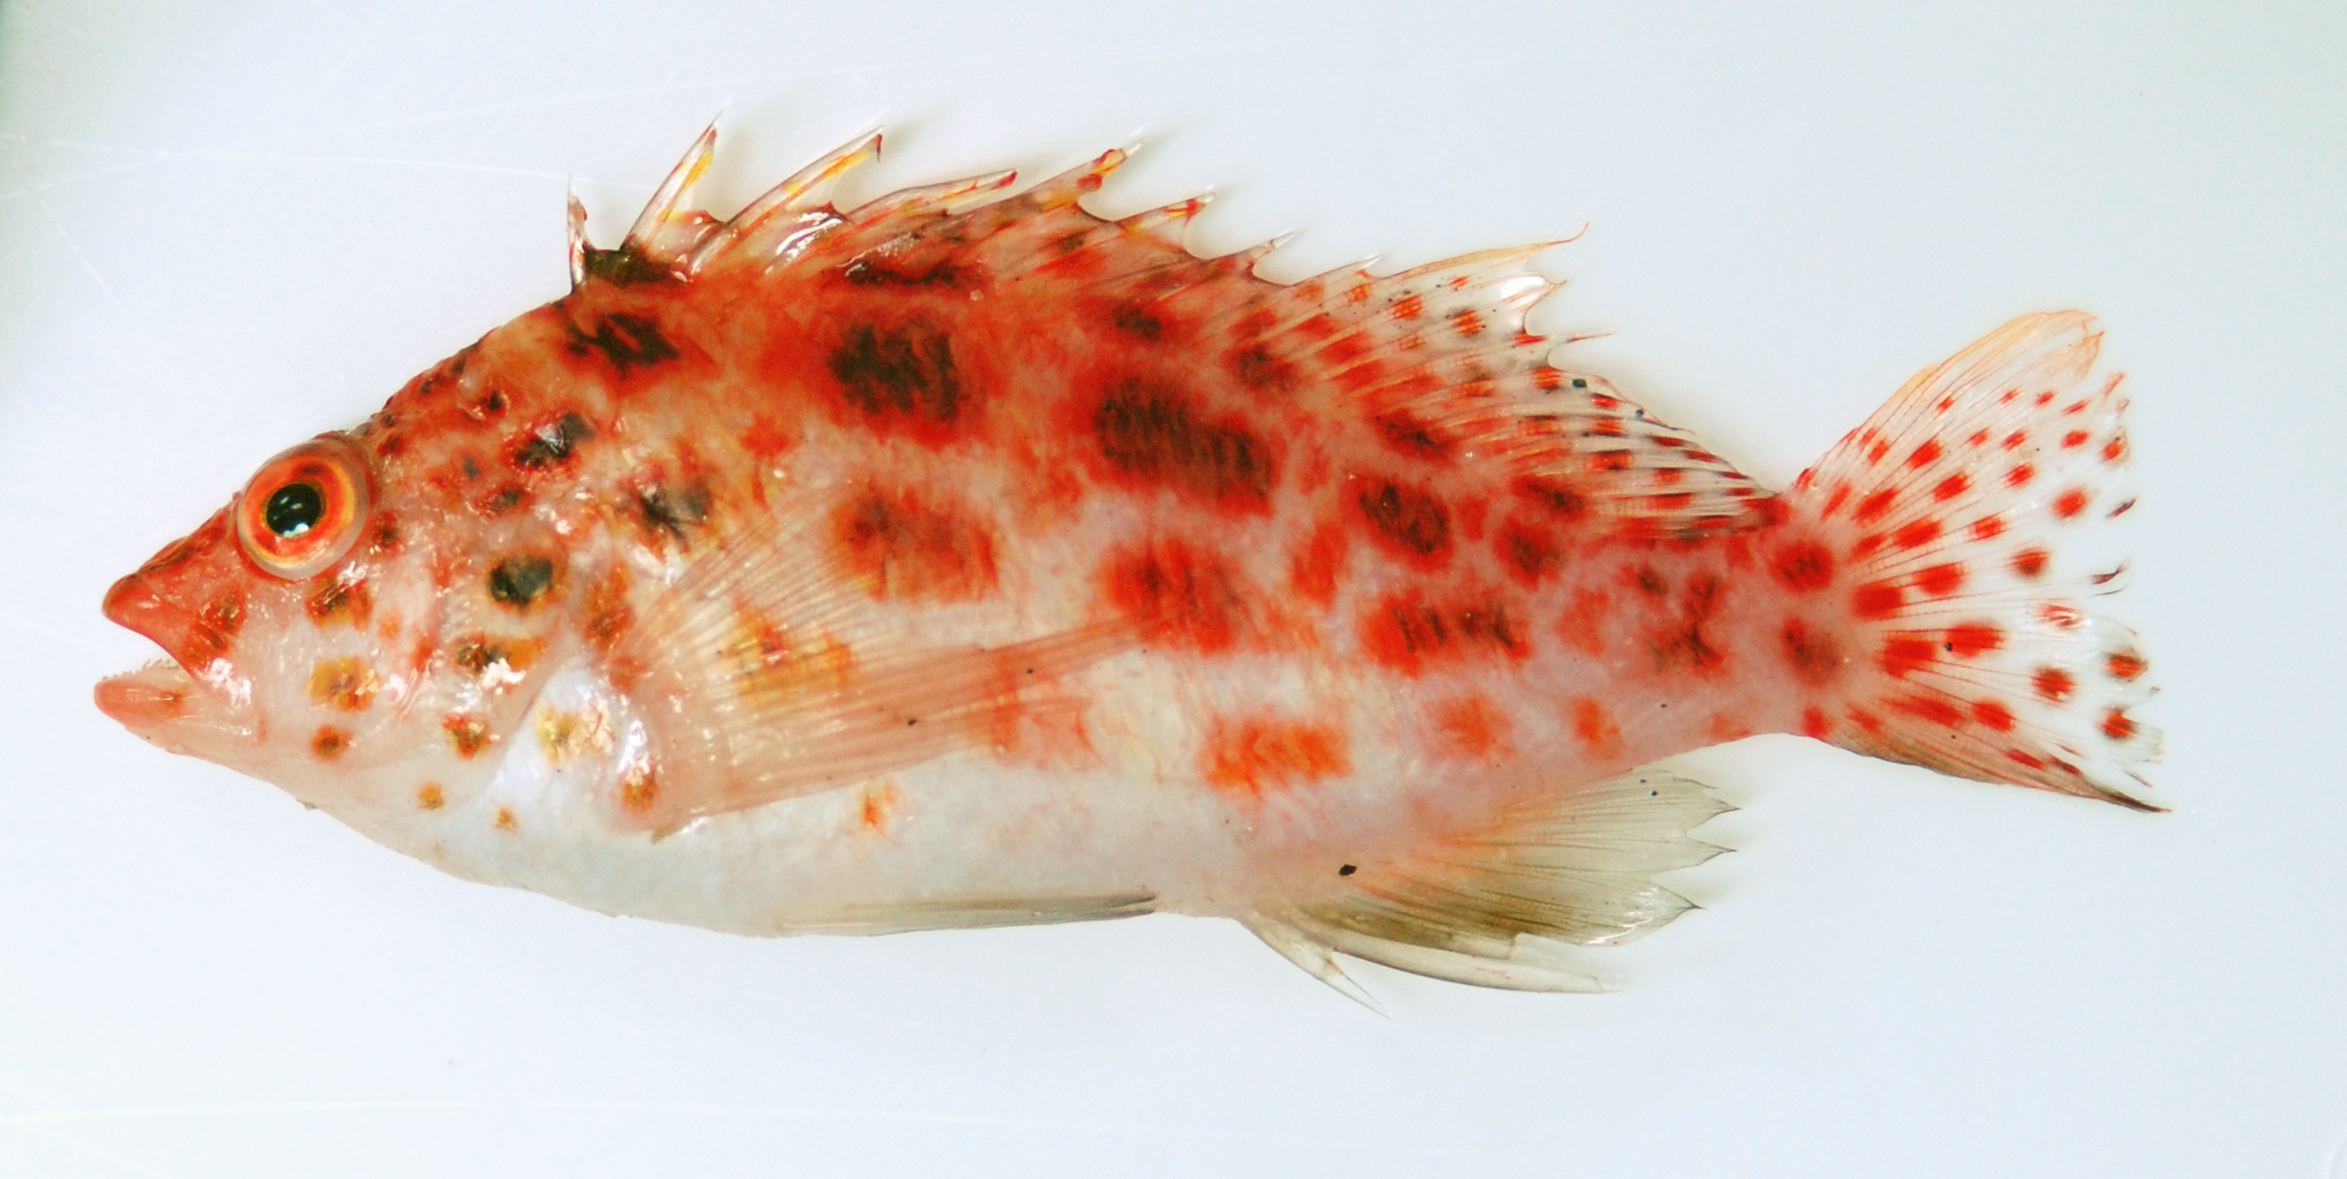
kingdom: Animalia
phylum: Chordata
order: Perciformes
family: Cirrhitidae
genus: Cirrhitichthys
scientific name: Cirrhitichthys oxycephalus
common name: Spotted hawkfish
